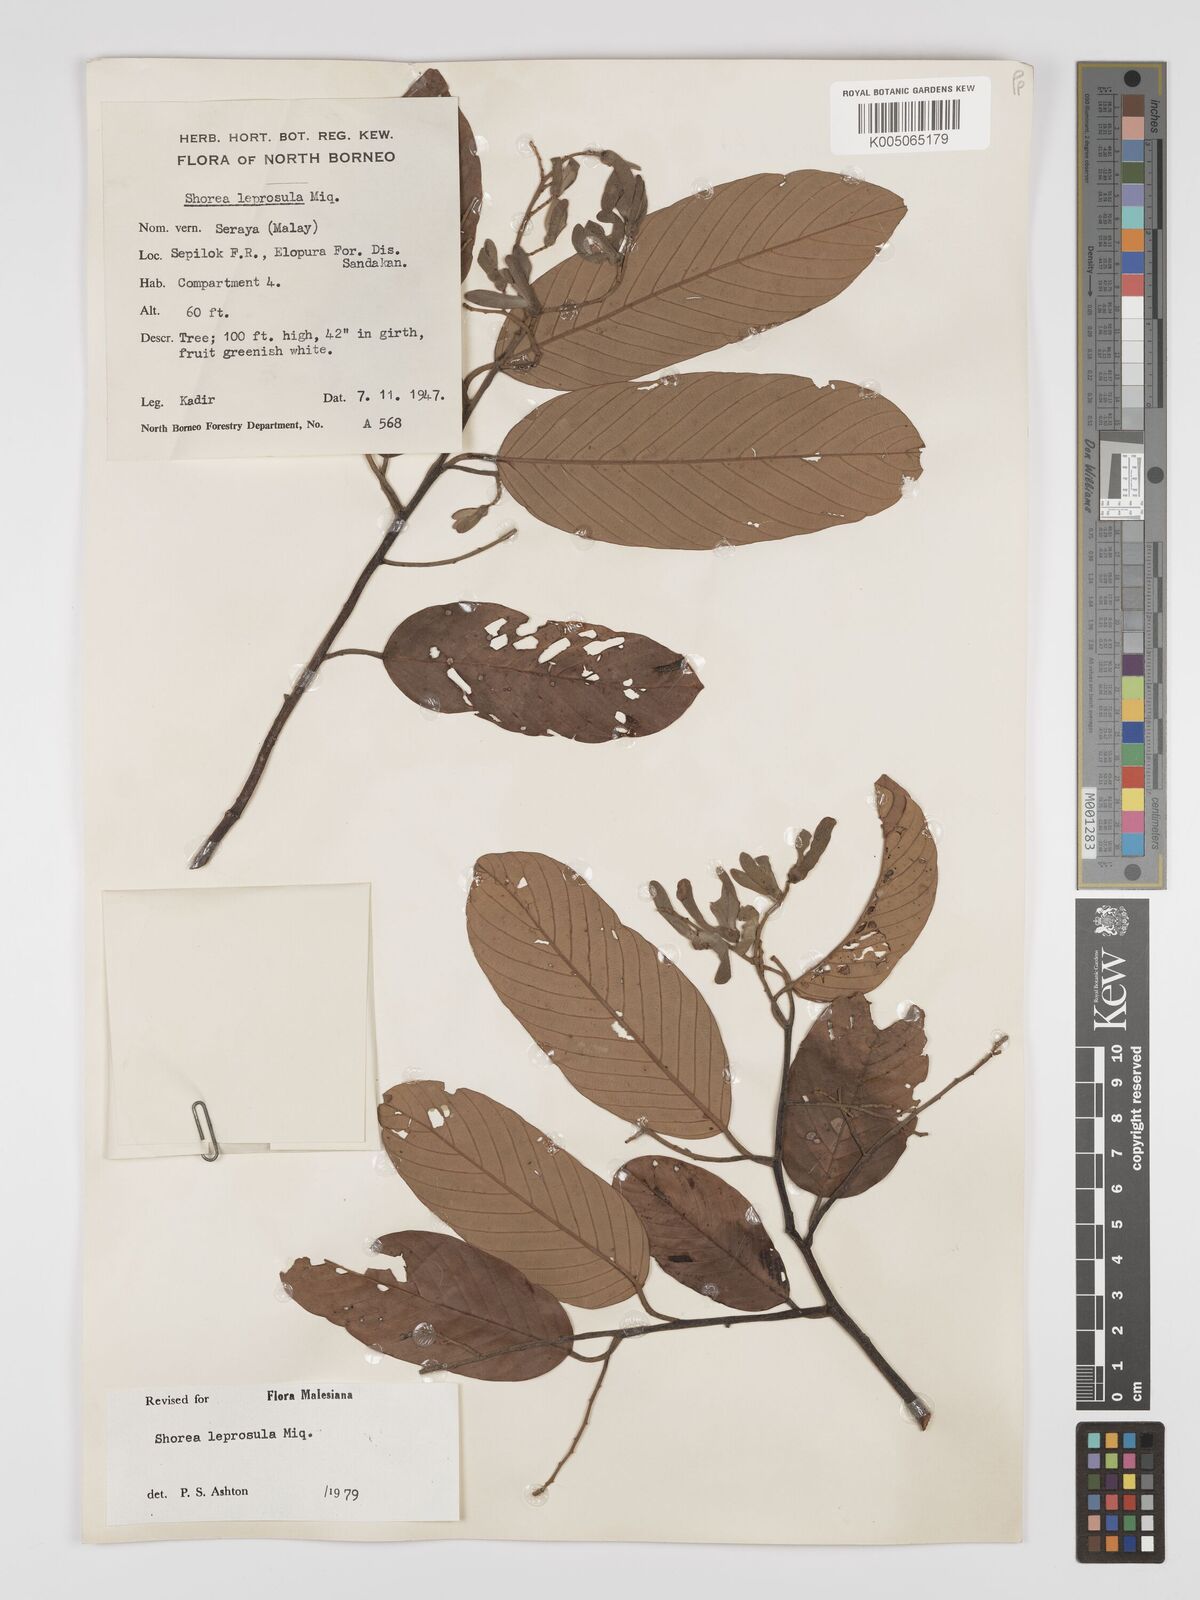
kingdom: Plantae
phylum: Tracheophyta
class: Magnoliopsida
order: Malvales
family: Dipterocarpaceae
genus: Shorea
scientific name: Shorea leprosula
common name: Light red meranti
